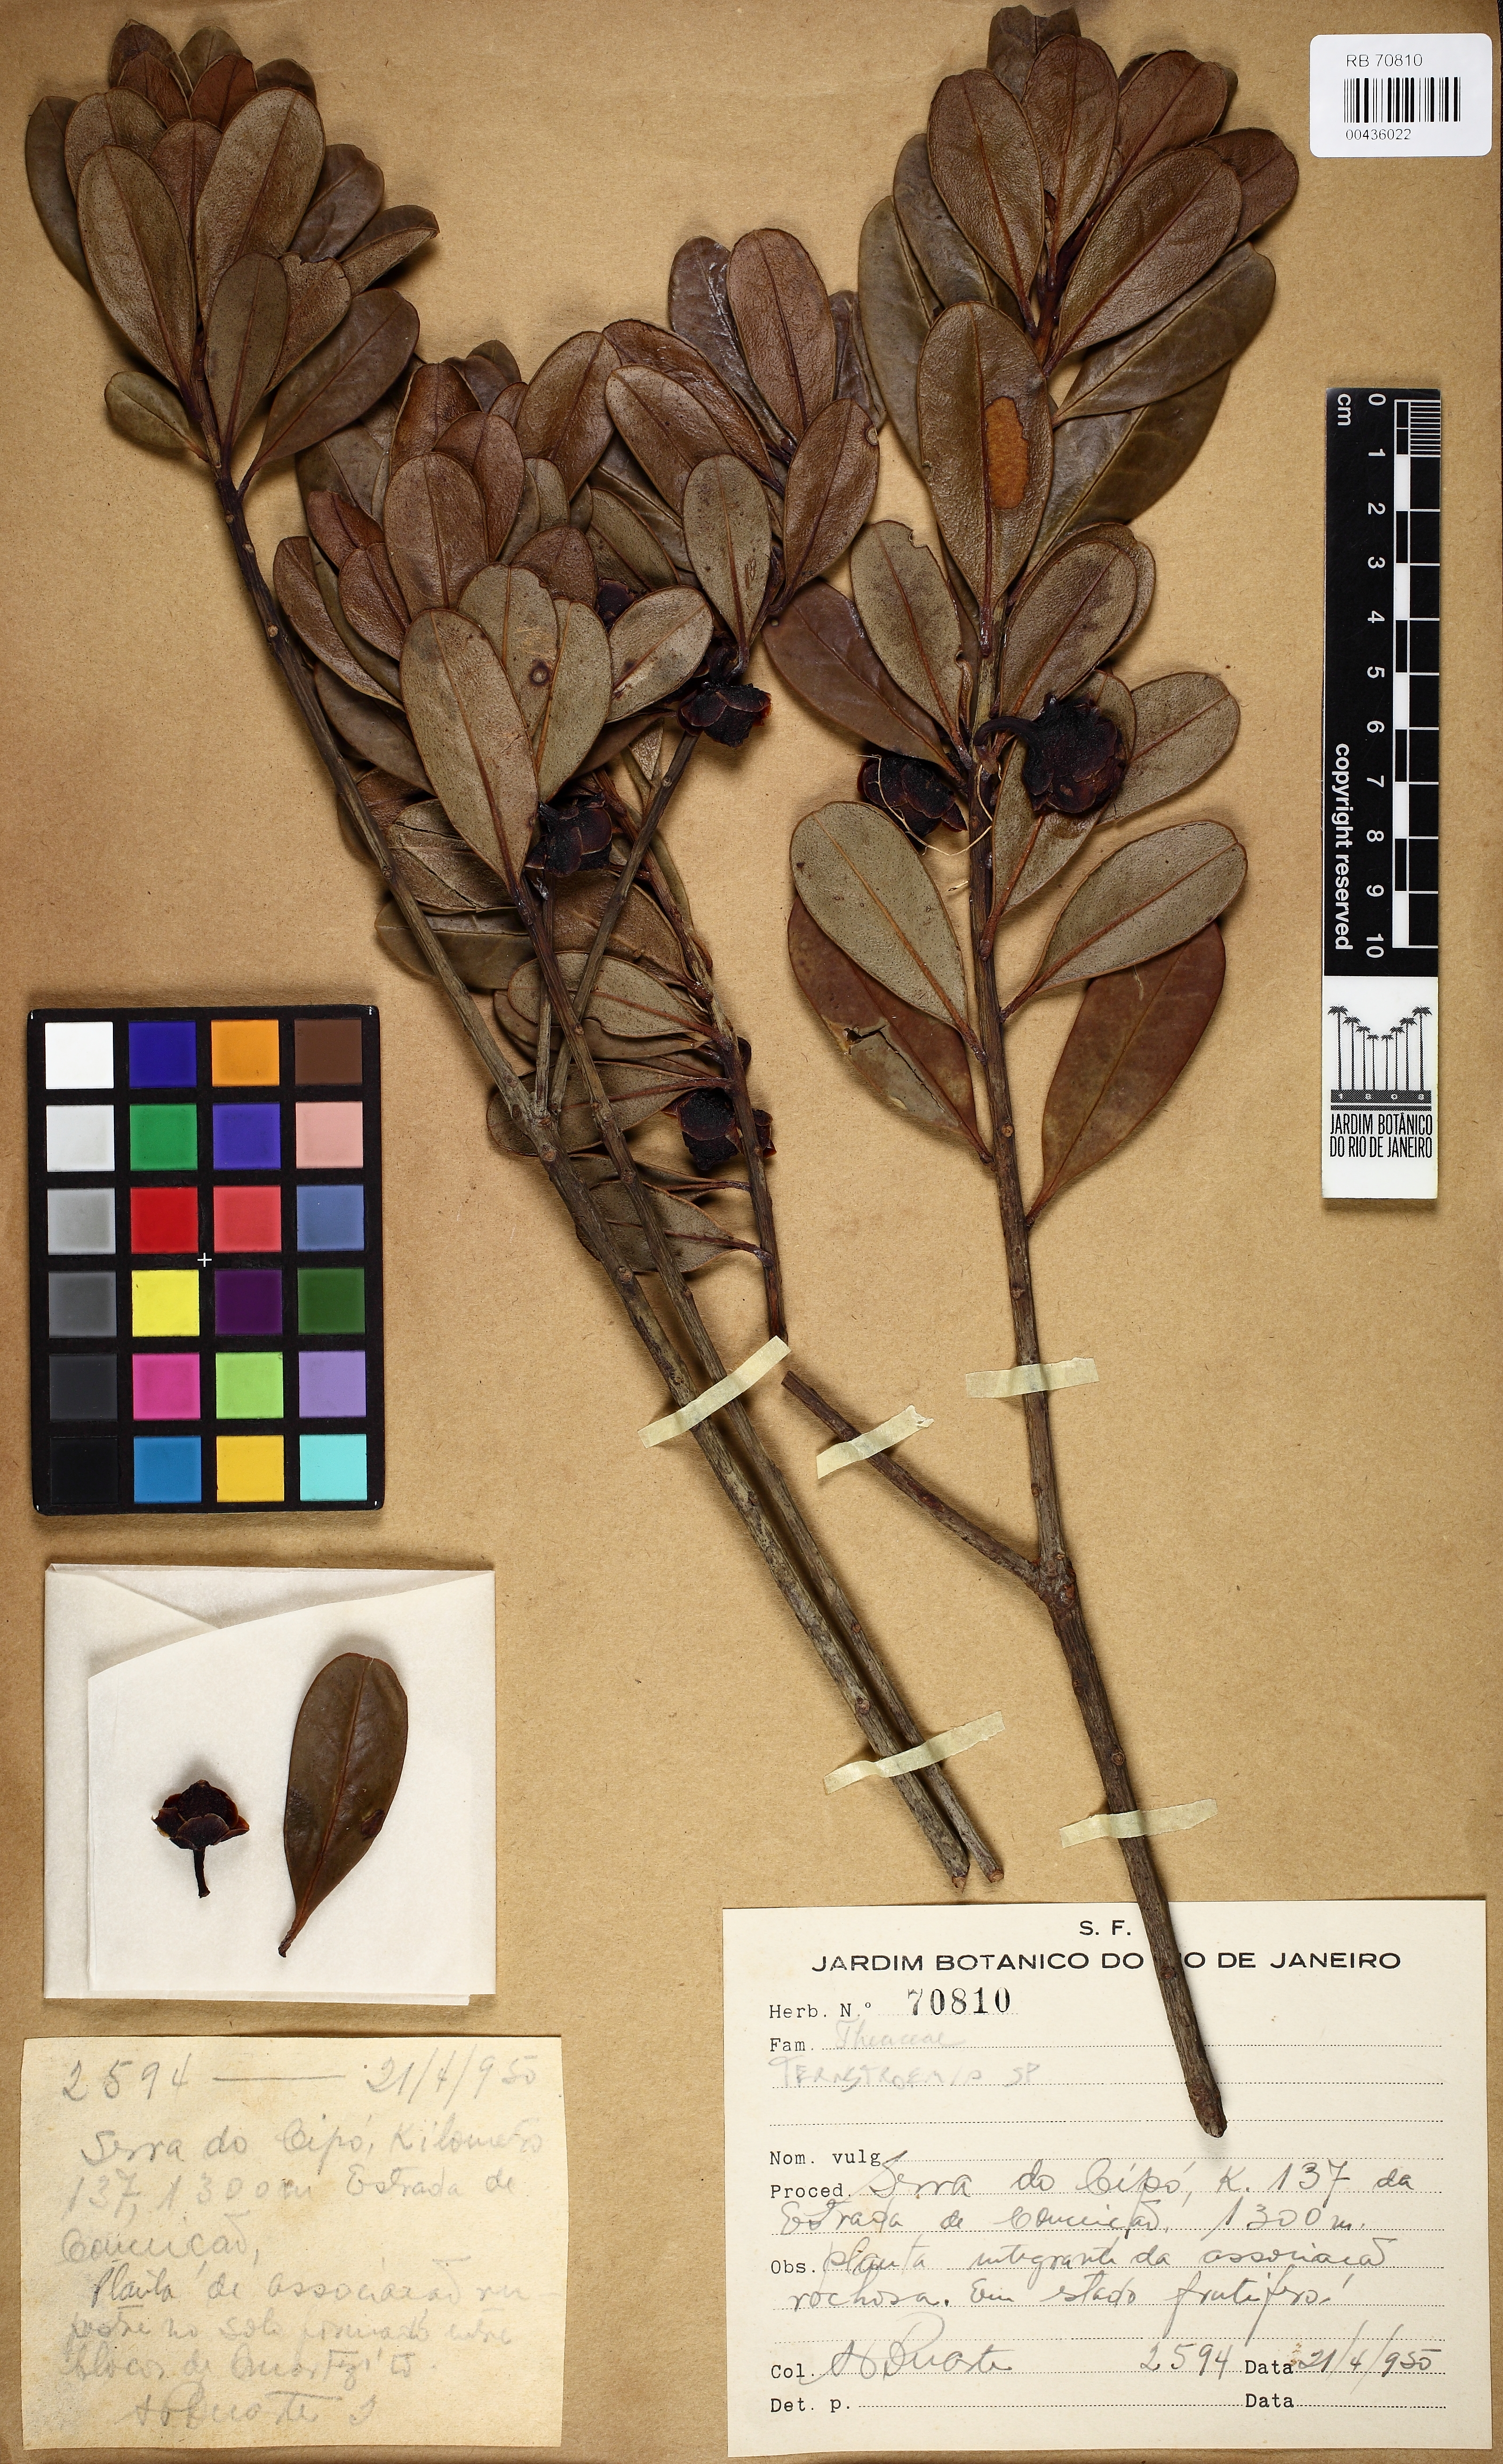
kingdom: Plantae
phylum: Tracheophyta
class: Magnoliopsida
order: Ericales
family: Pentaphylacaceae
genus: Ternstroemia
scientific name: Ternstroemia carnosa
